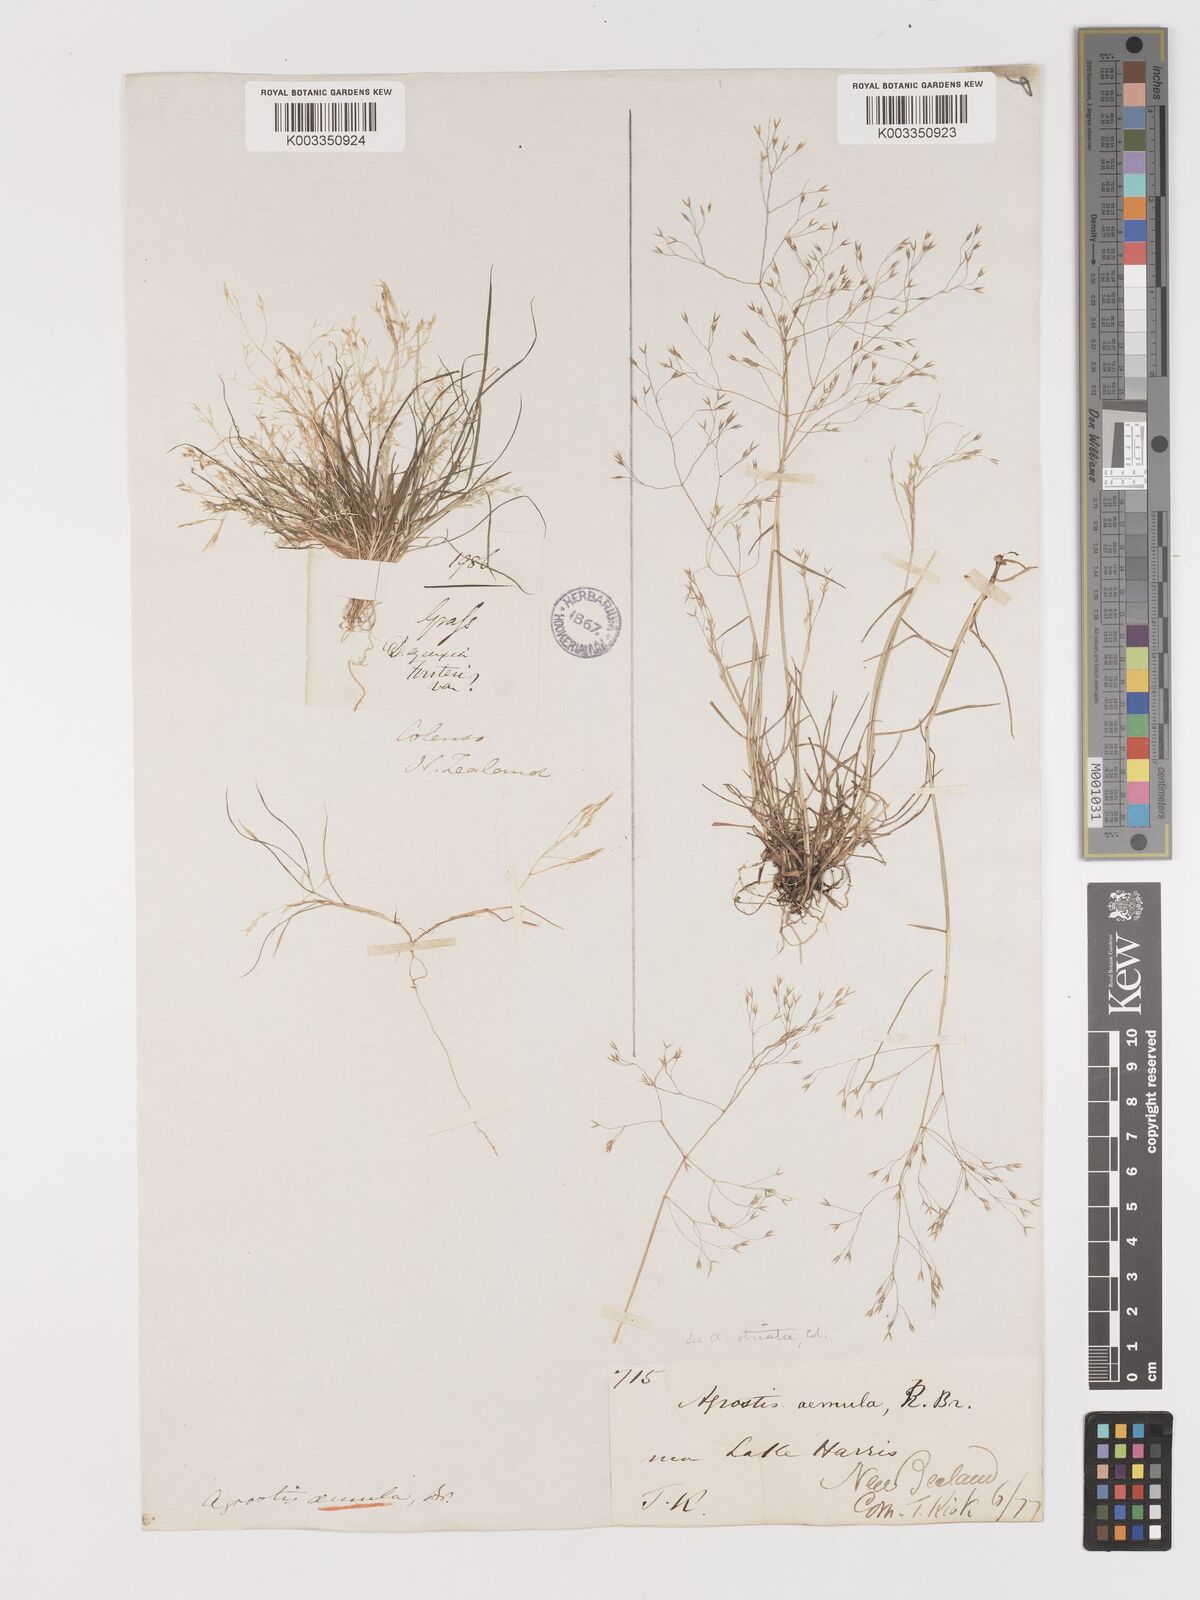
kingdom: Plantae
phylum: Tracheophyta
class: Liliopsida
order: Poales
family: Poaceae
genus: Lachnagrostis
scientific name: Lachnagrostis striata
